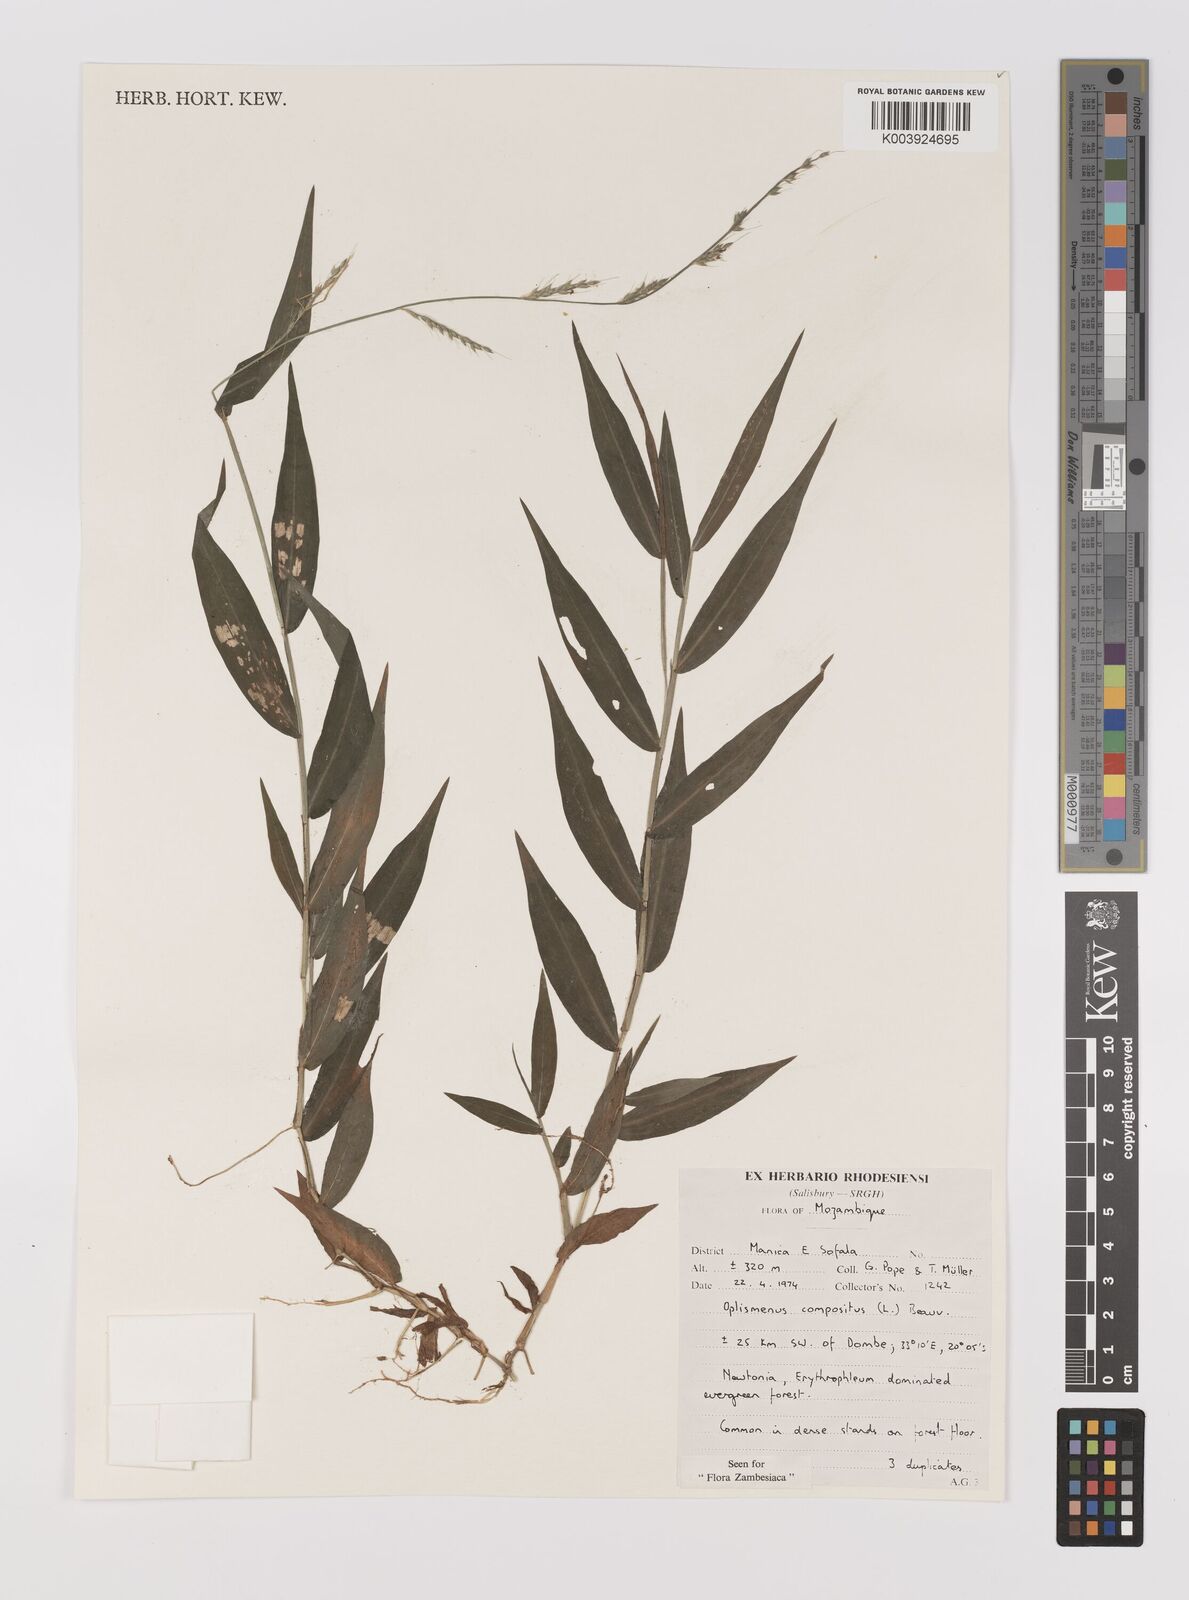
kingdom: Plantae
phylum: Tracheophyta
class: Liliopsida
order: Poales
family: Poaceae
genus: Oplismenus
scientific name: Oplismenus compositus
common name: Running mountain grass
